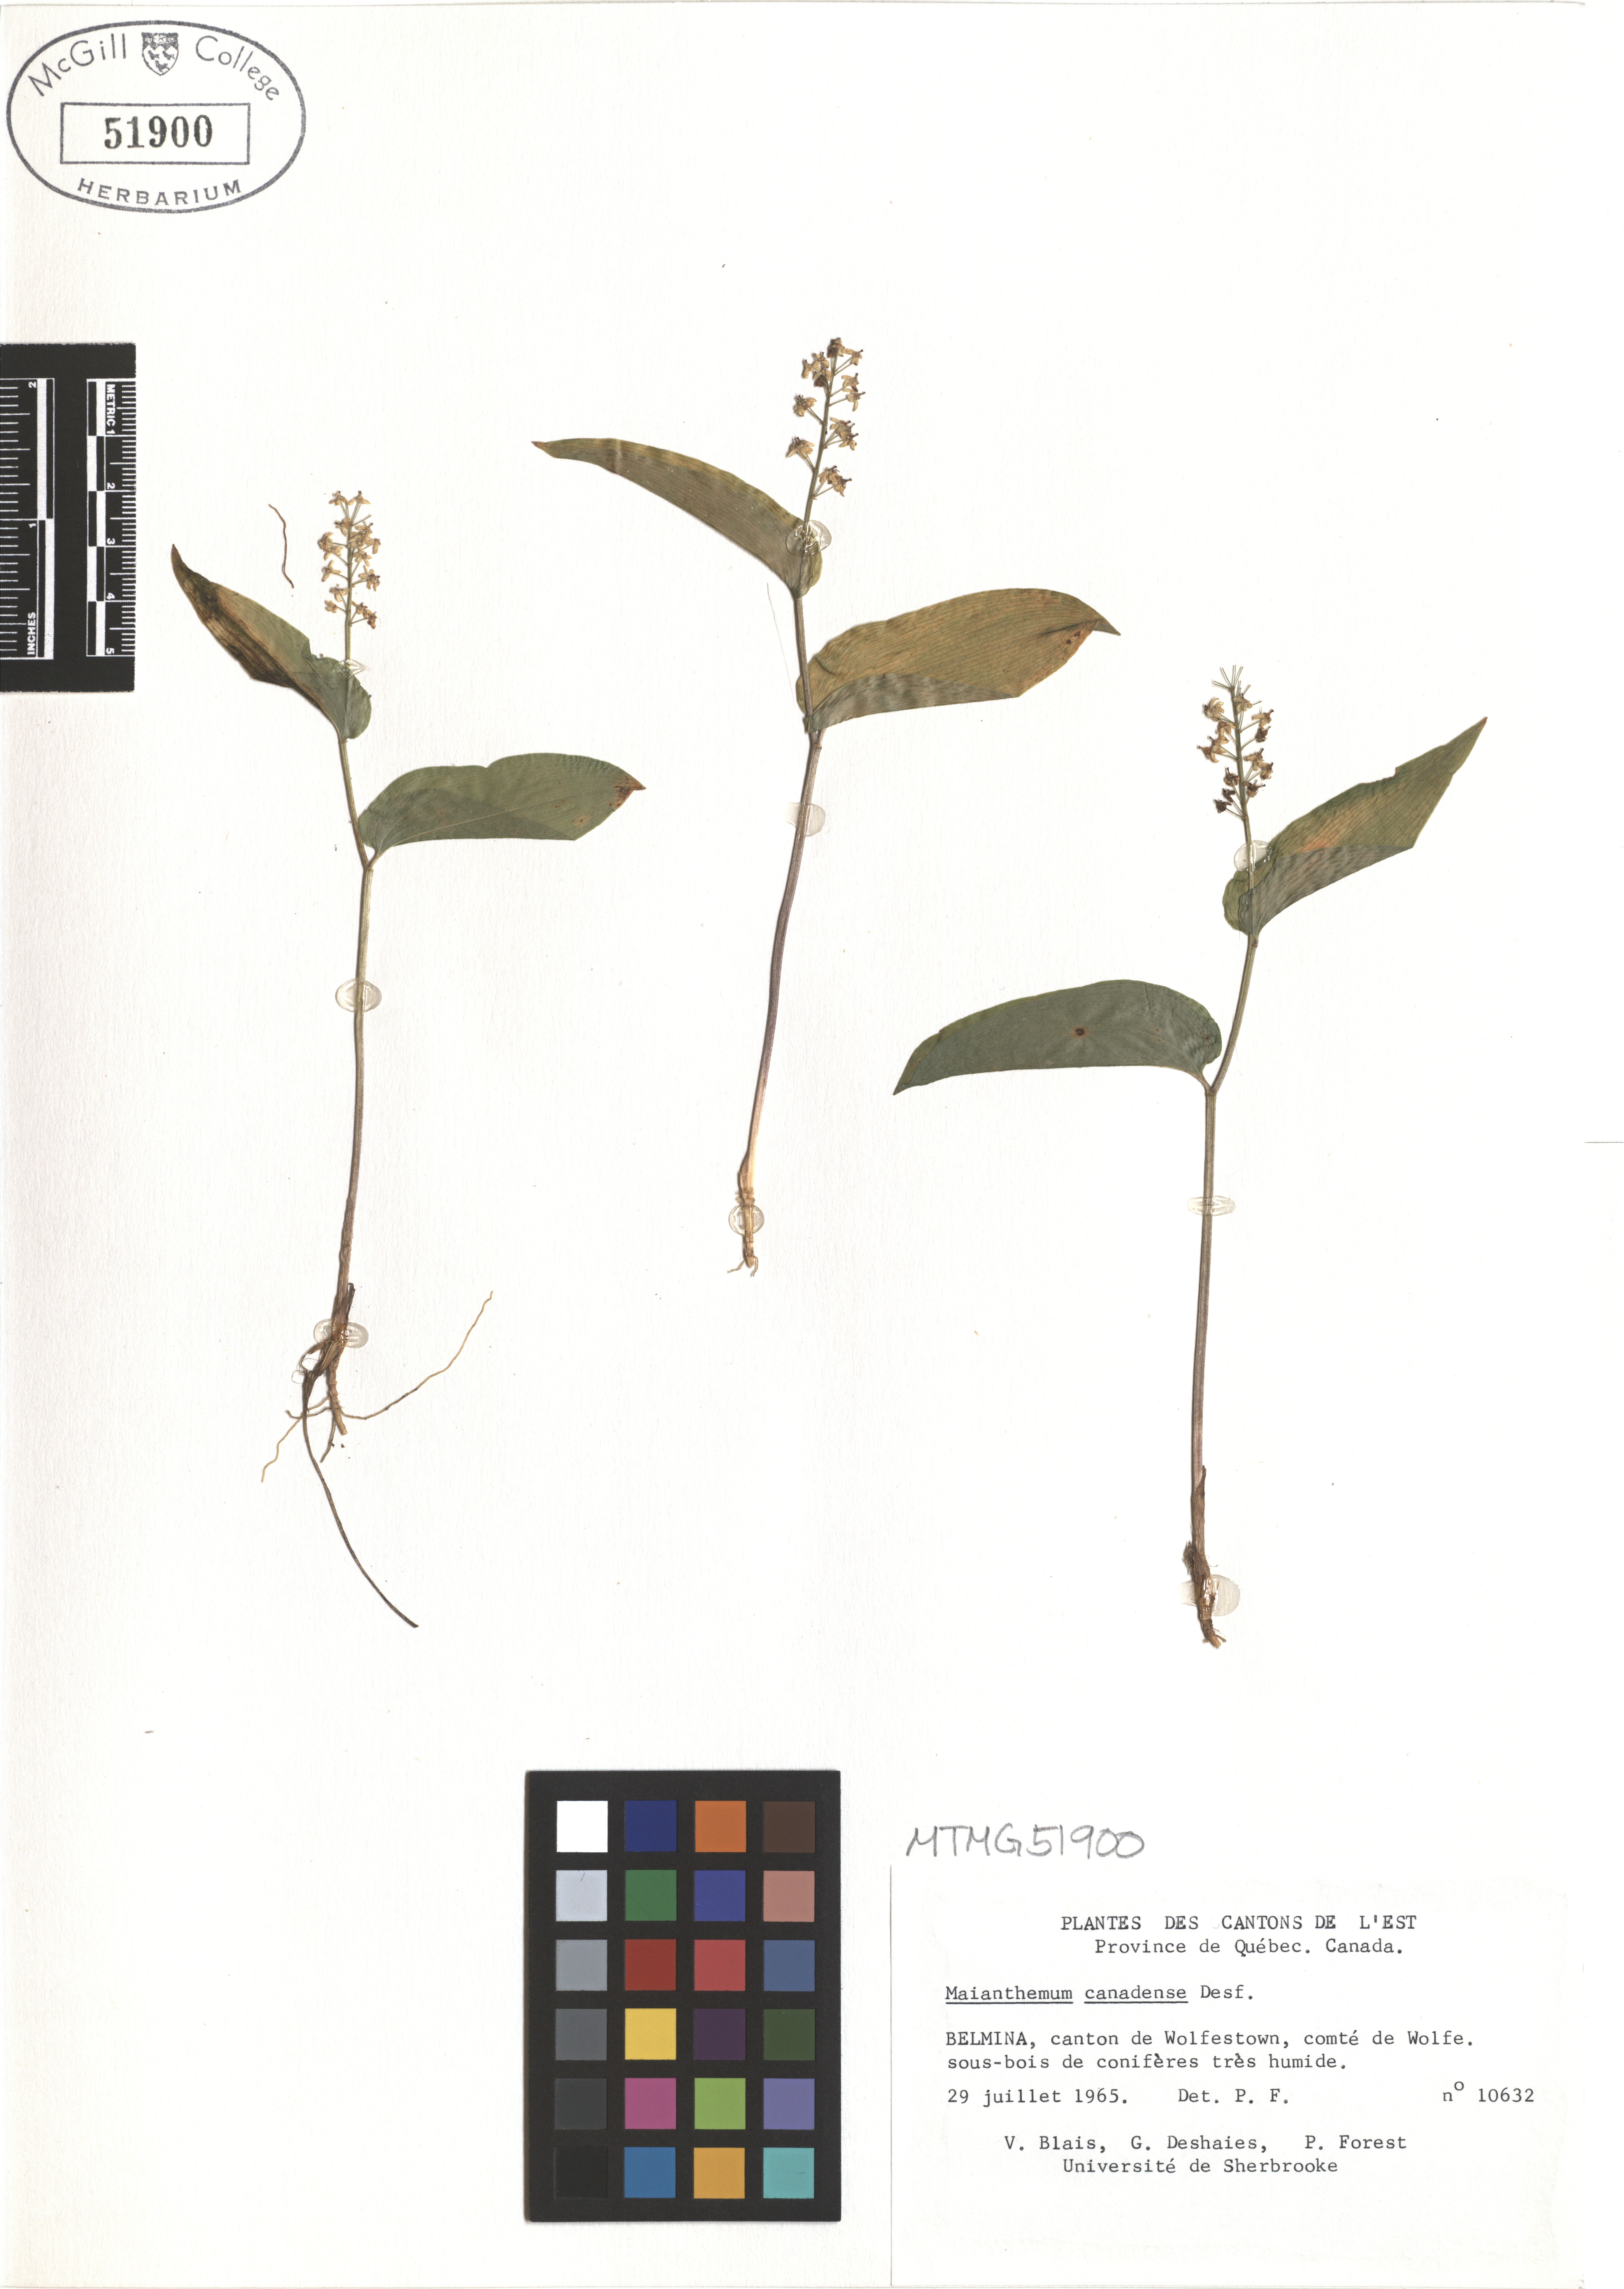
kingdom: Plantae
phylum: Tracheophyta
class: Liliopsida
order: Asparagales
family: Asparagaceae
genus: Maianthemum
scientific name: Maianthemum canadense
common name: False lily-of-the-valley
